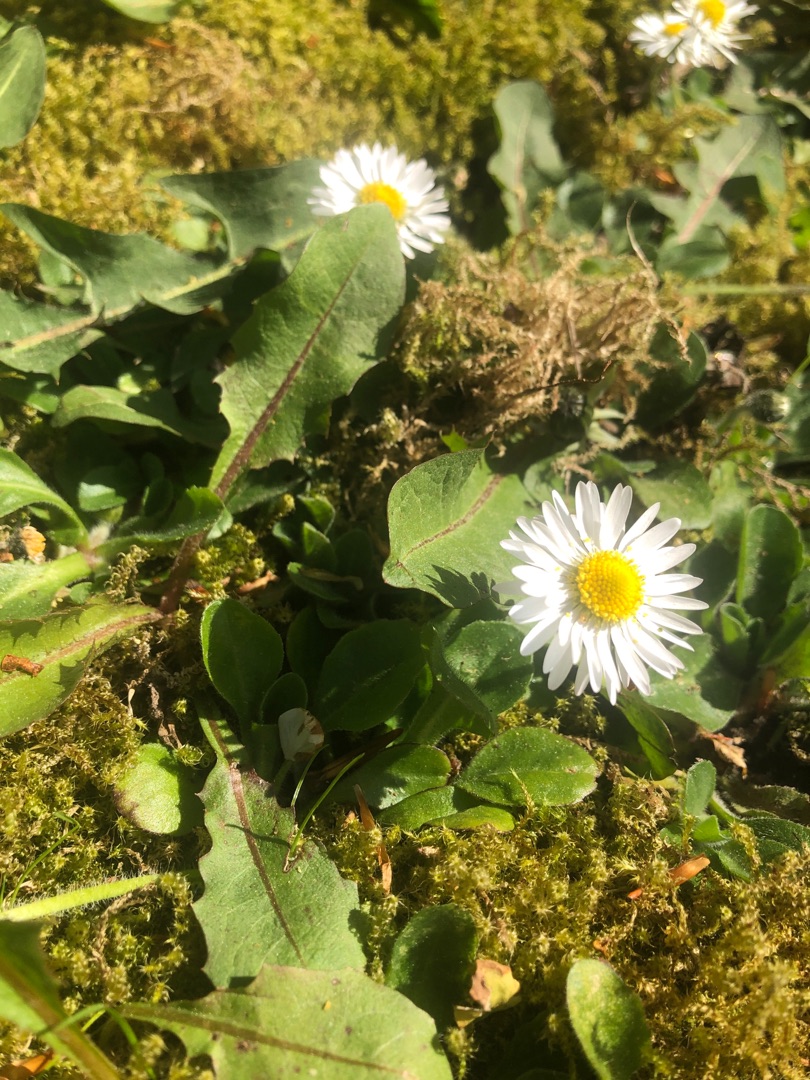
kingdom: Plantae
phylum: Tracheophyta
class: Magnoliopsida
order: Asterales
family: Asteraceae
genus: Bellis
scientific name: Bellis perennis
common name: Tusindfryd
